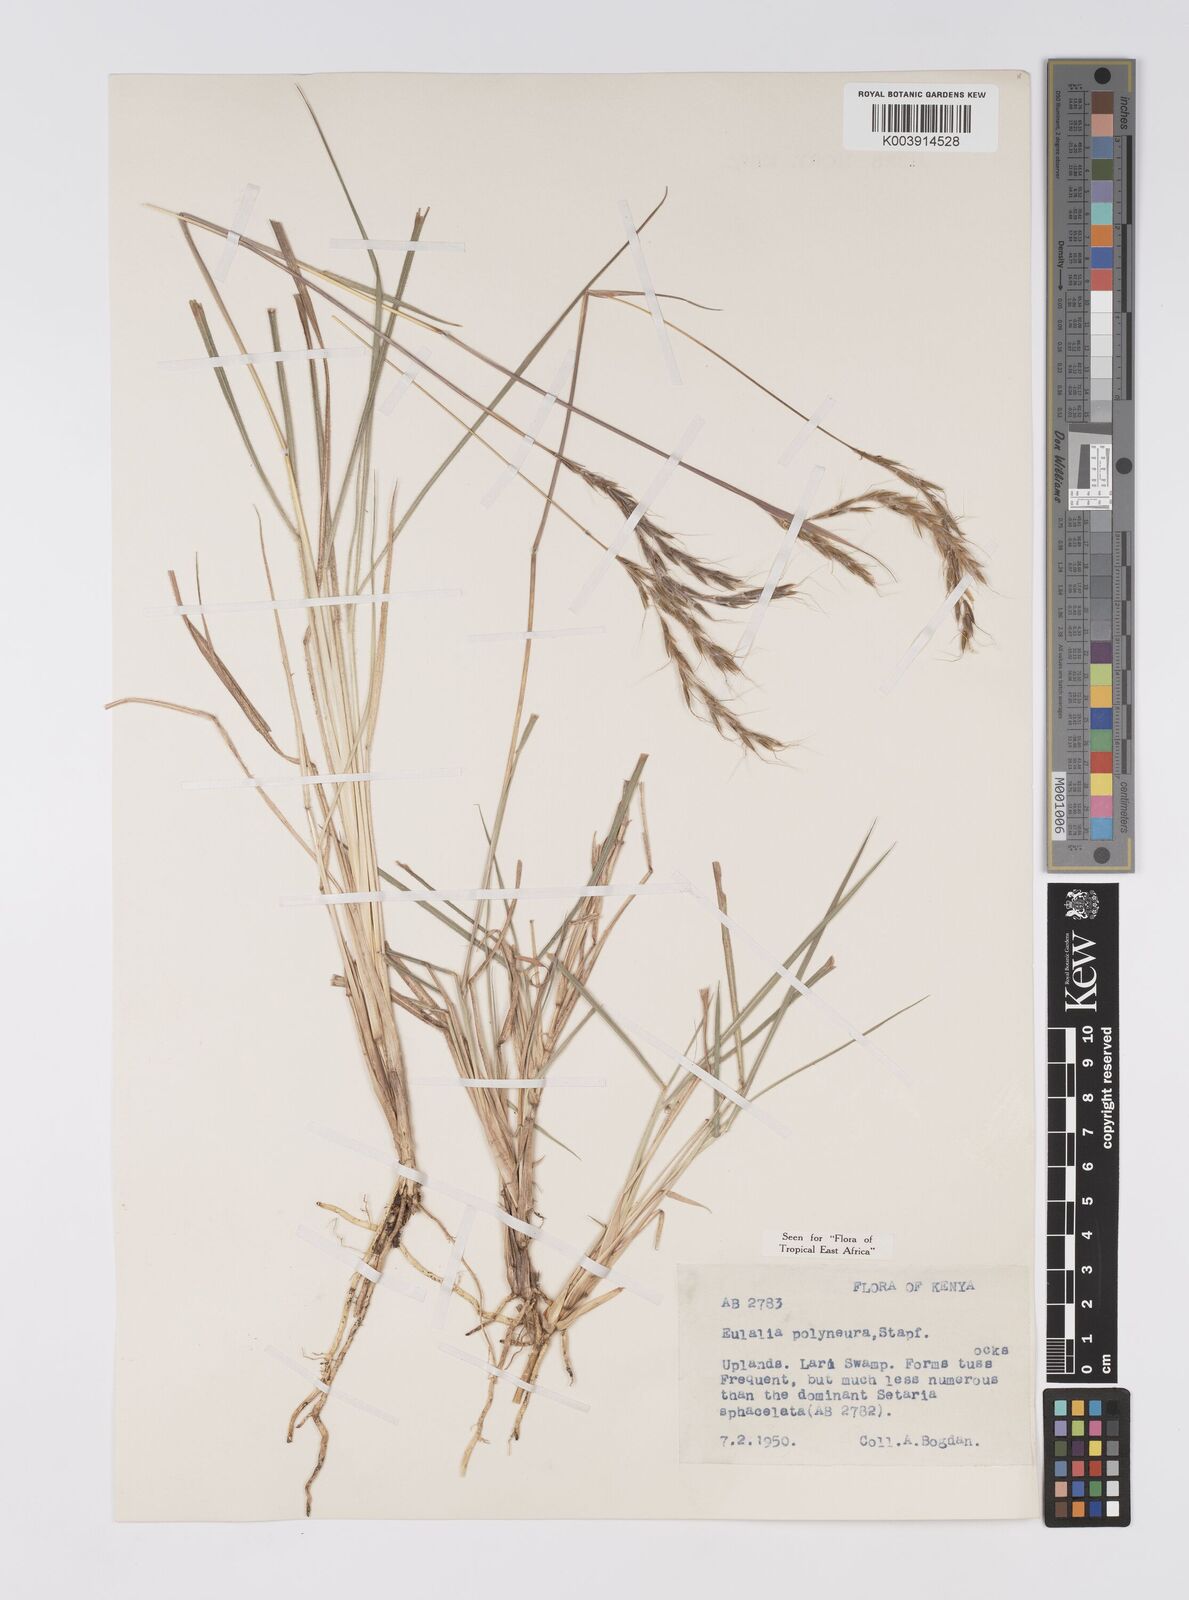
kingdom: Plantae
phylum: Tracheophyta
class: Liliopsida
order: Poales
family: Poaceae
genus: Eulalia
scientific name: Eulalia polyneura
